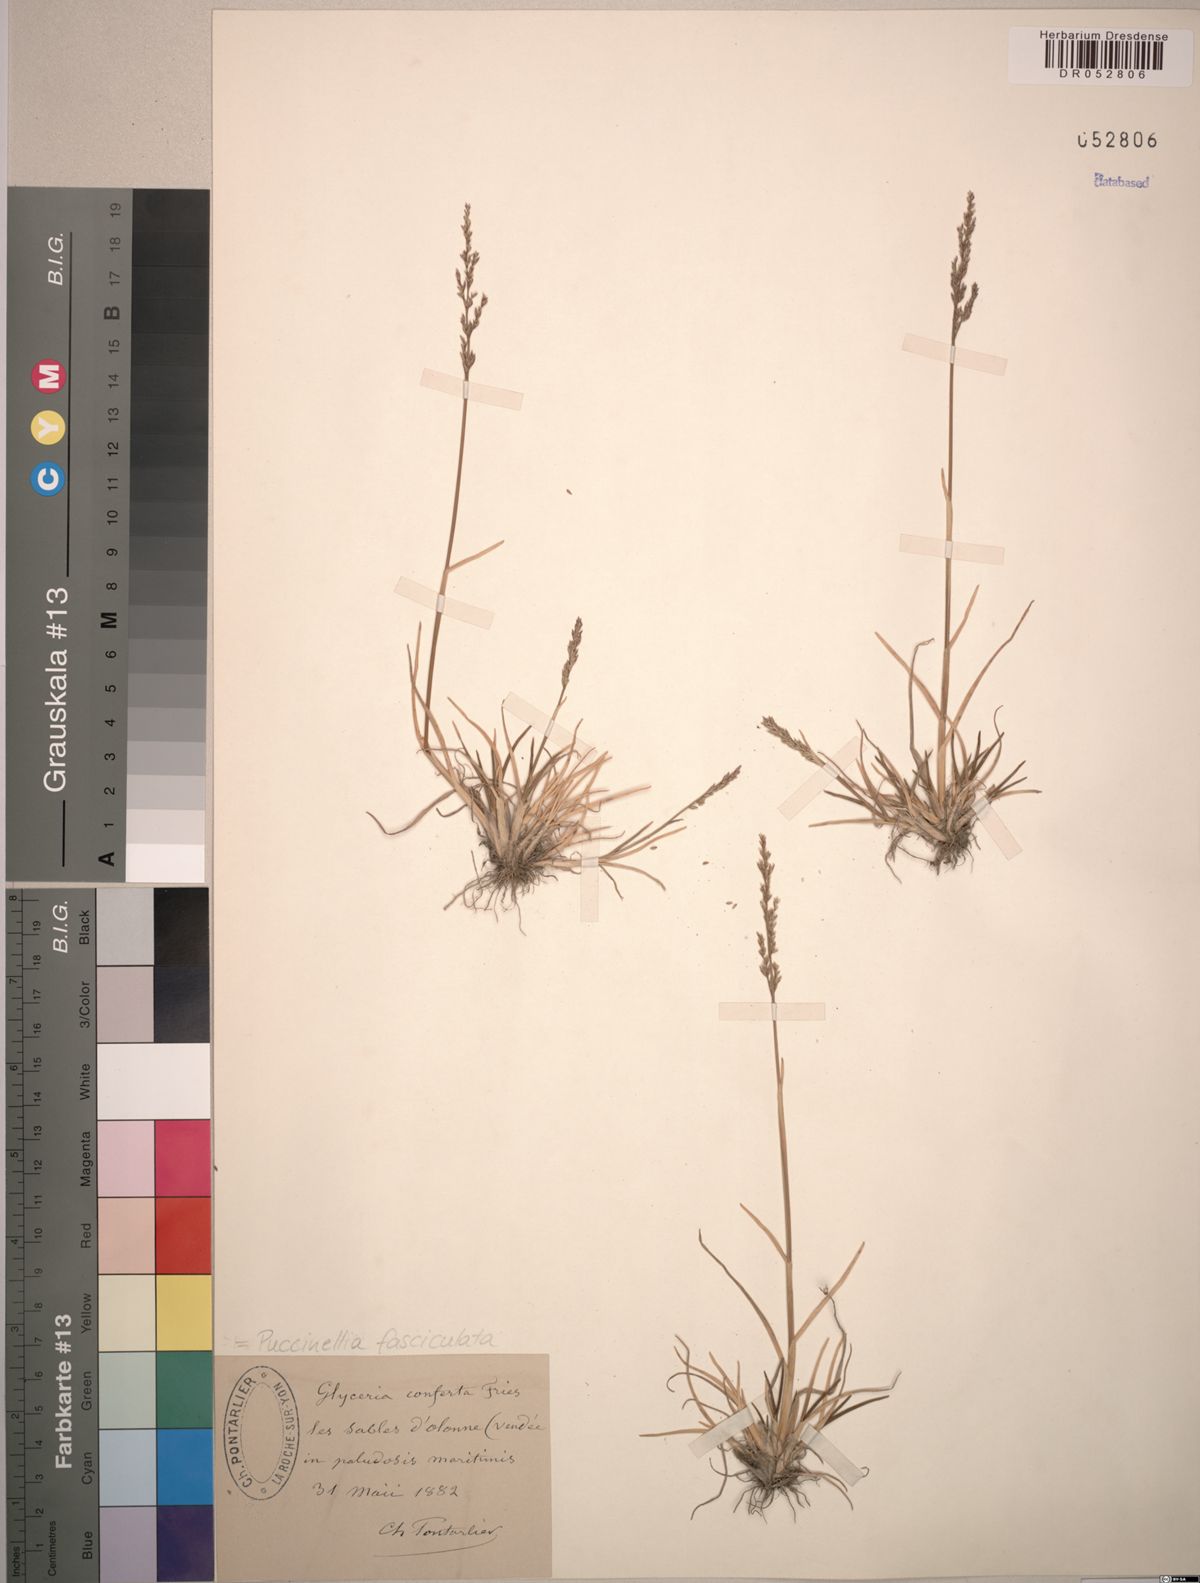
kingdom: Plantae
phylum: Tracheophyta
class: Liliopsida
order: Poales
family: Poaceae
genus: Puccinellia
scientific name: Puccinellia fasciculata
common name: Borrer's saltmarsh-grass
